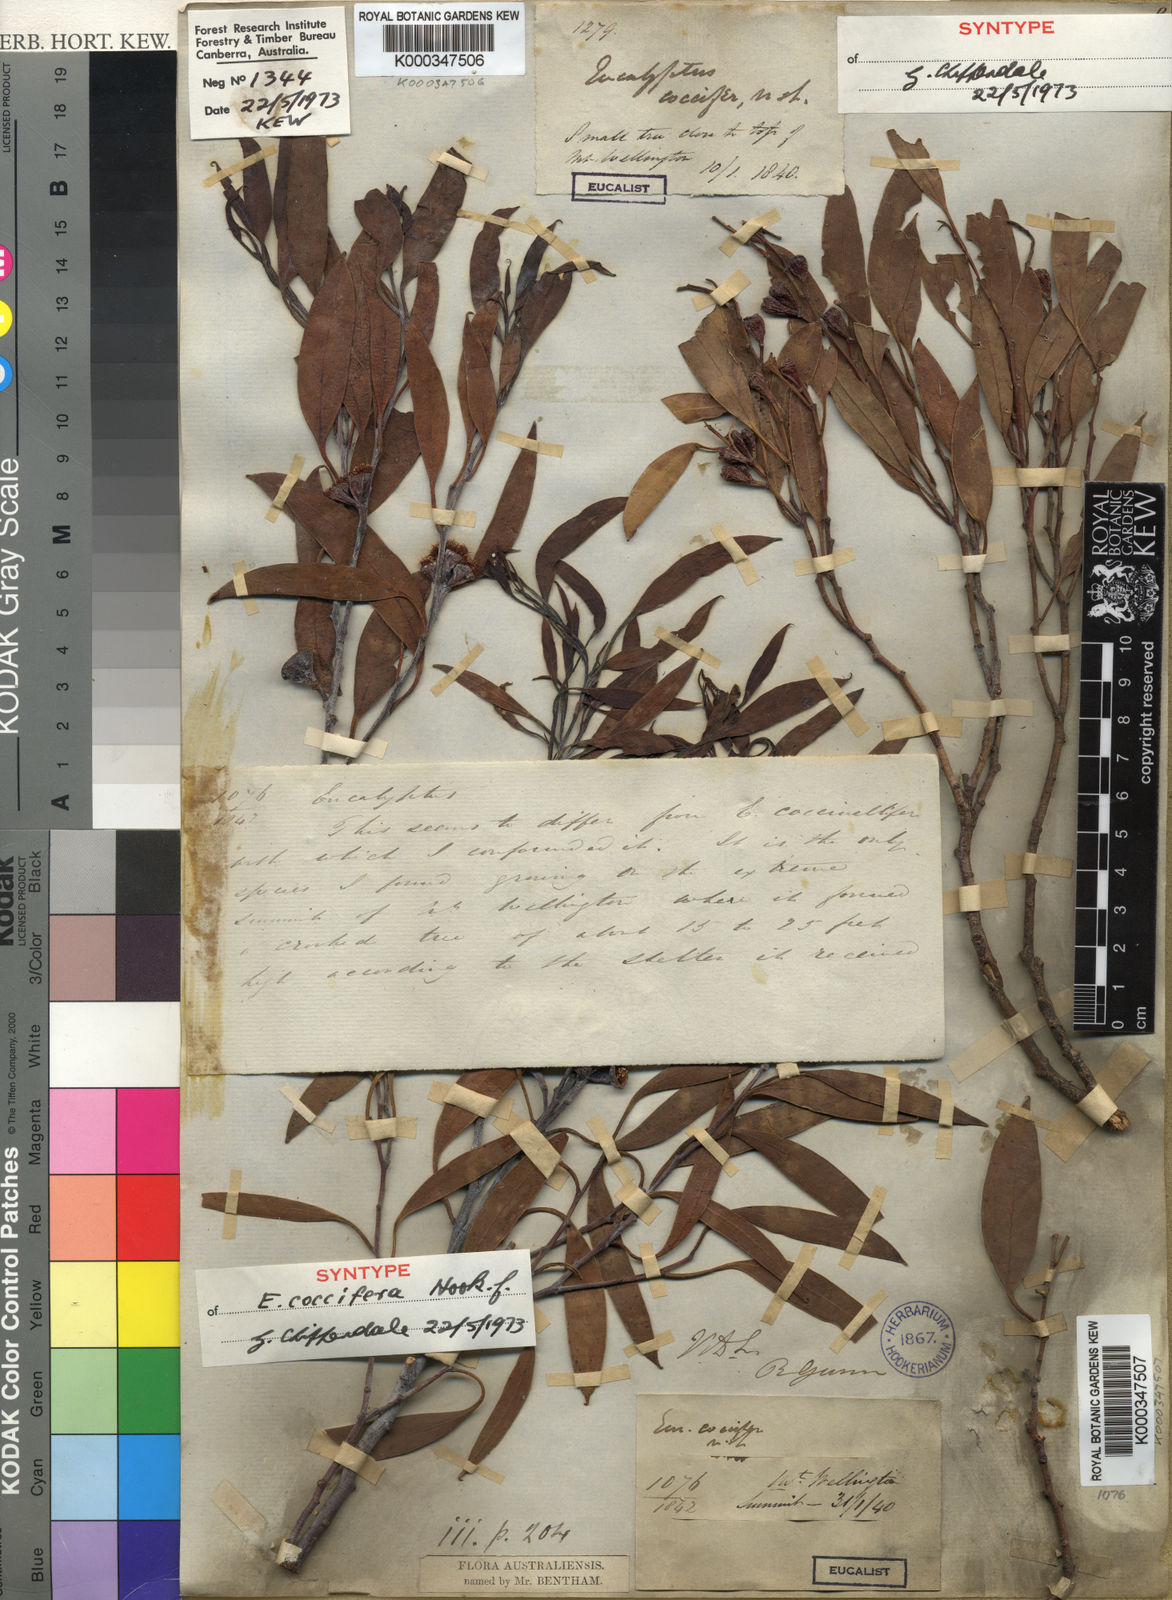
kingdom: Plantae
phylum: Tracheophyta
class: Magnoliopsida
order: Myrtales
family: Myrtaceae
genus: Eucalyptus
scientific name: Eucalyptus coccifera
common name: Tasmanian snow-gum
